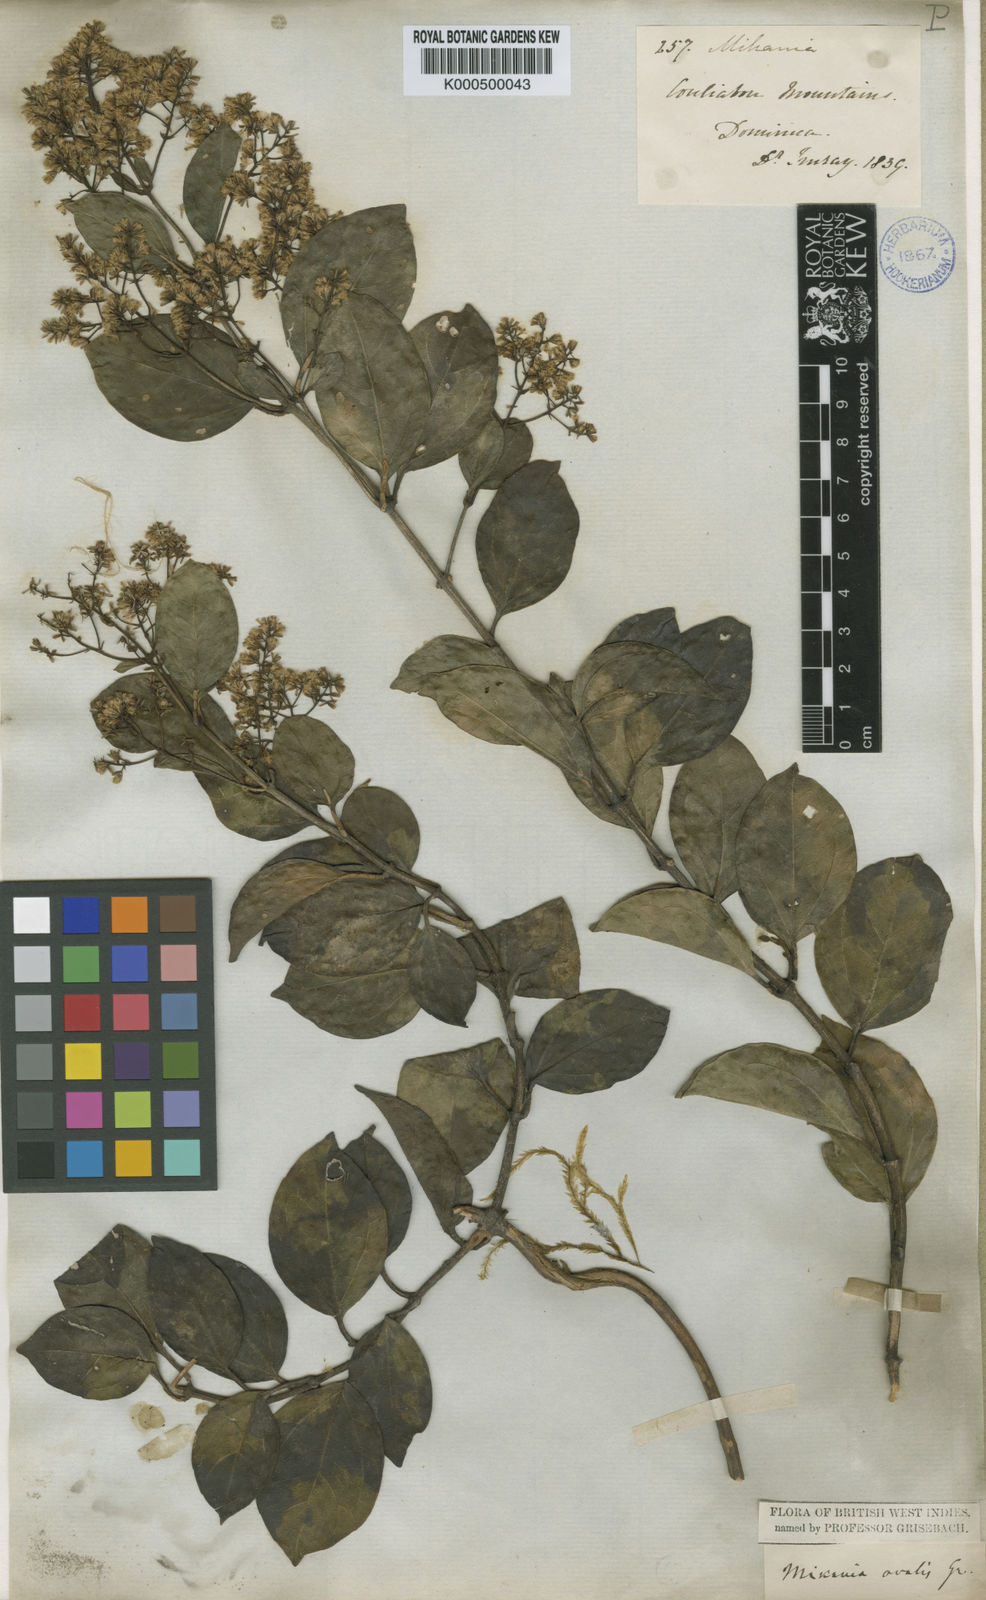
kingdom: Plantae
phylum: Tracheophyta
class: Magnoliopsida
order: Asterales
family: Asteraceae
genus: Mikania
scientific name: Mikania ovalis
